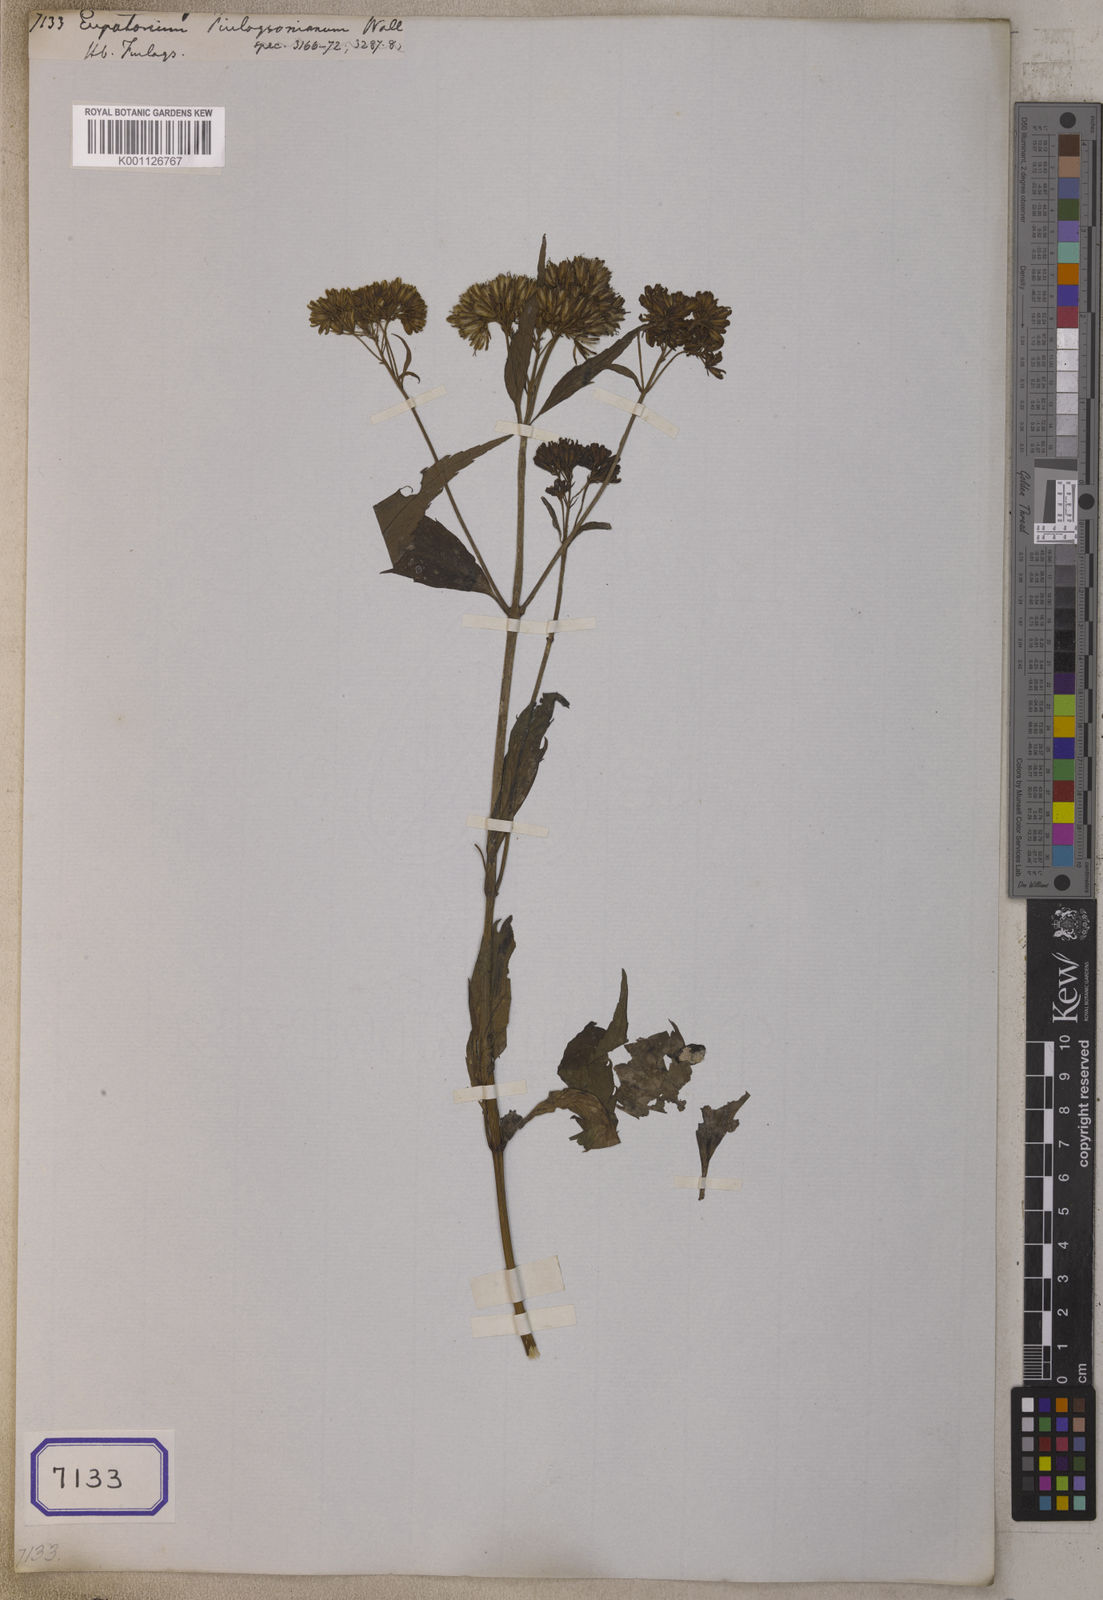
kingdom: Plantae
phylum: Tracheophyta
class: Magnoliopsida
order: Asterales
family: Asteraceae
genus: Eupatorium
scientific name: Eupatorium cannabinum
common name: Hemp-agrimony
